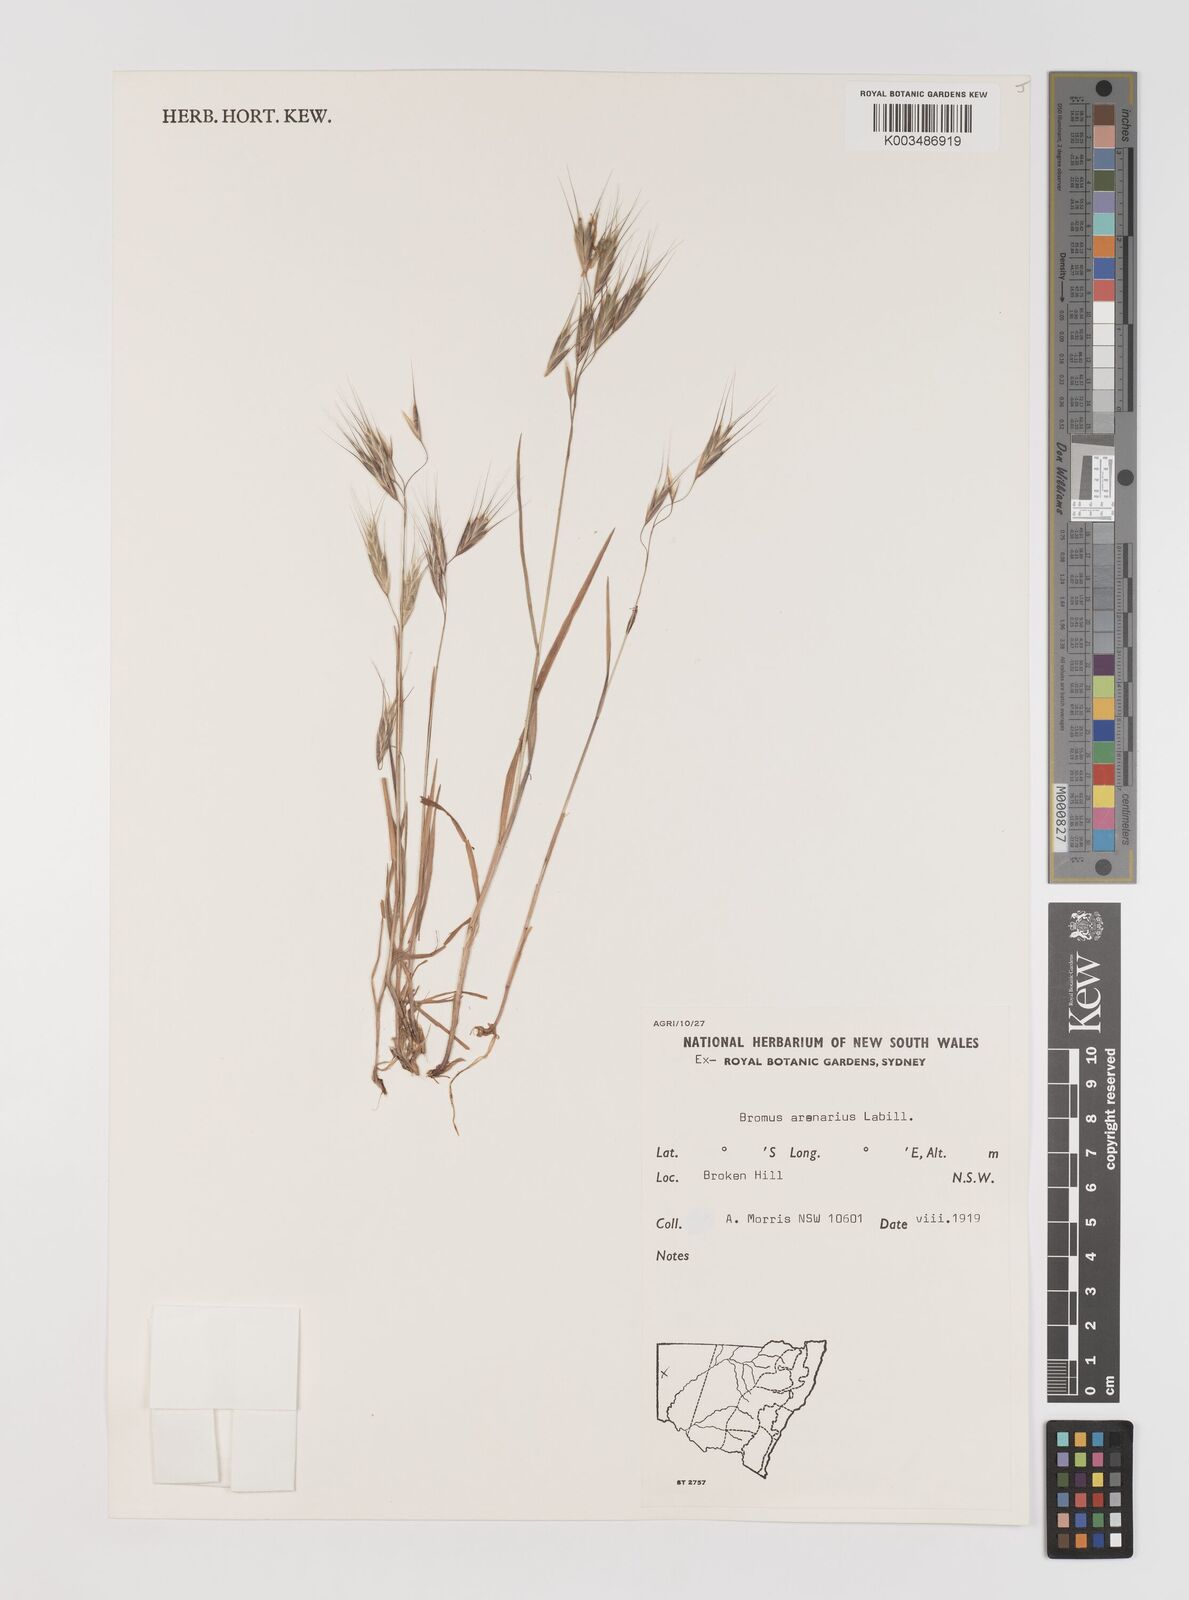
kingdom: Plantae
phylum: Tracheophyta
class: Liliopsida
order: Poales
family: Poaceae
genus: Bromus
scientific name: Bromus arenarius
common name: Australian brome
